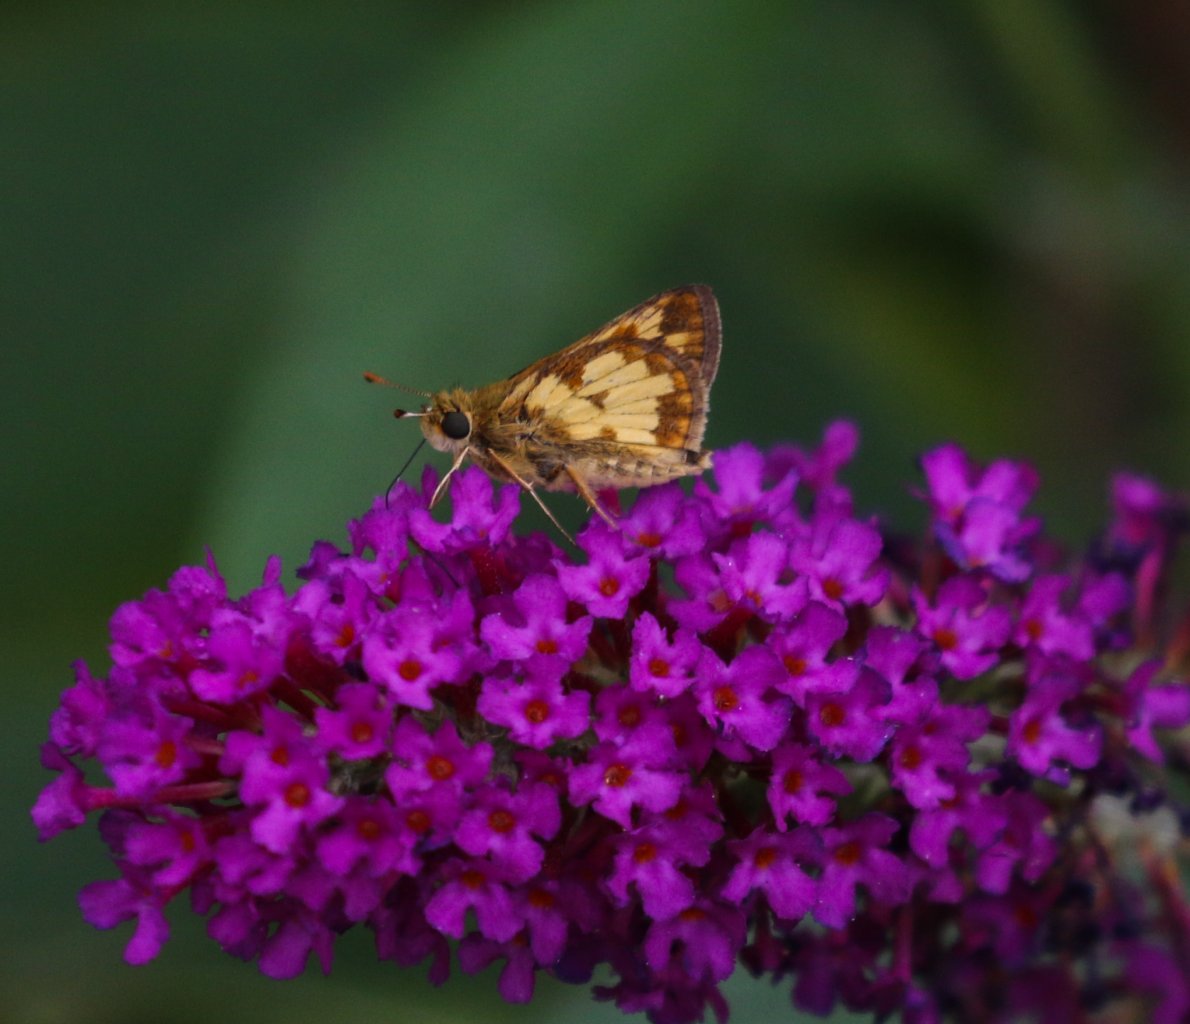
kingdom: Animalia
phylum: Arthropoda
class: Insecta
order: Lepidoptera
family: Hesperiidae
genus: Polites
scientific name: Polites coras
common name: Peck's Skipper
